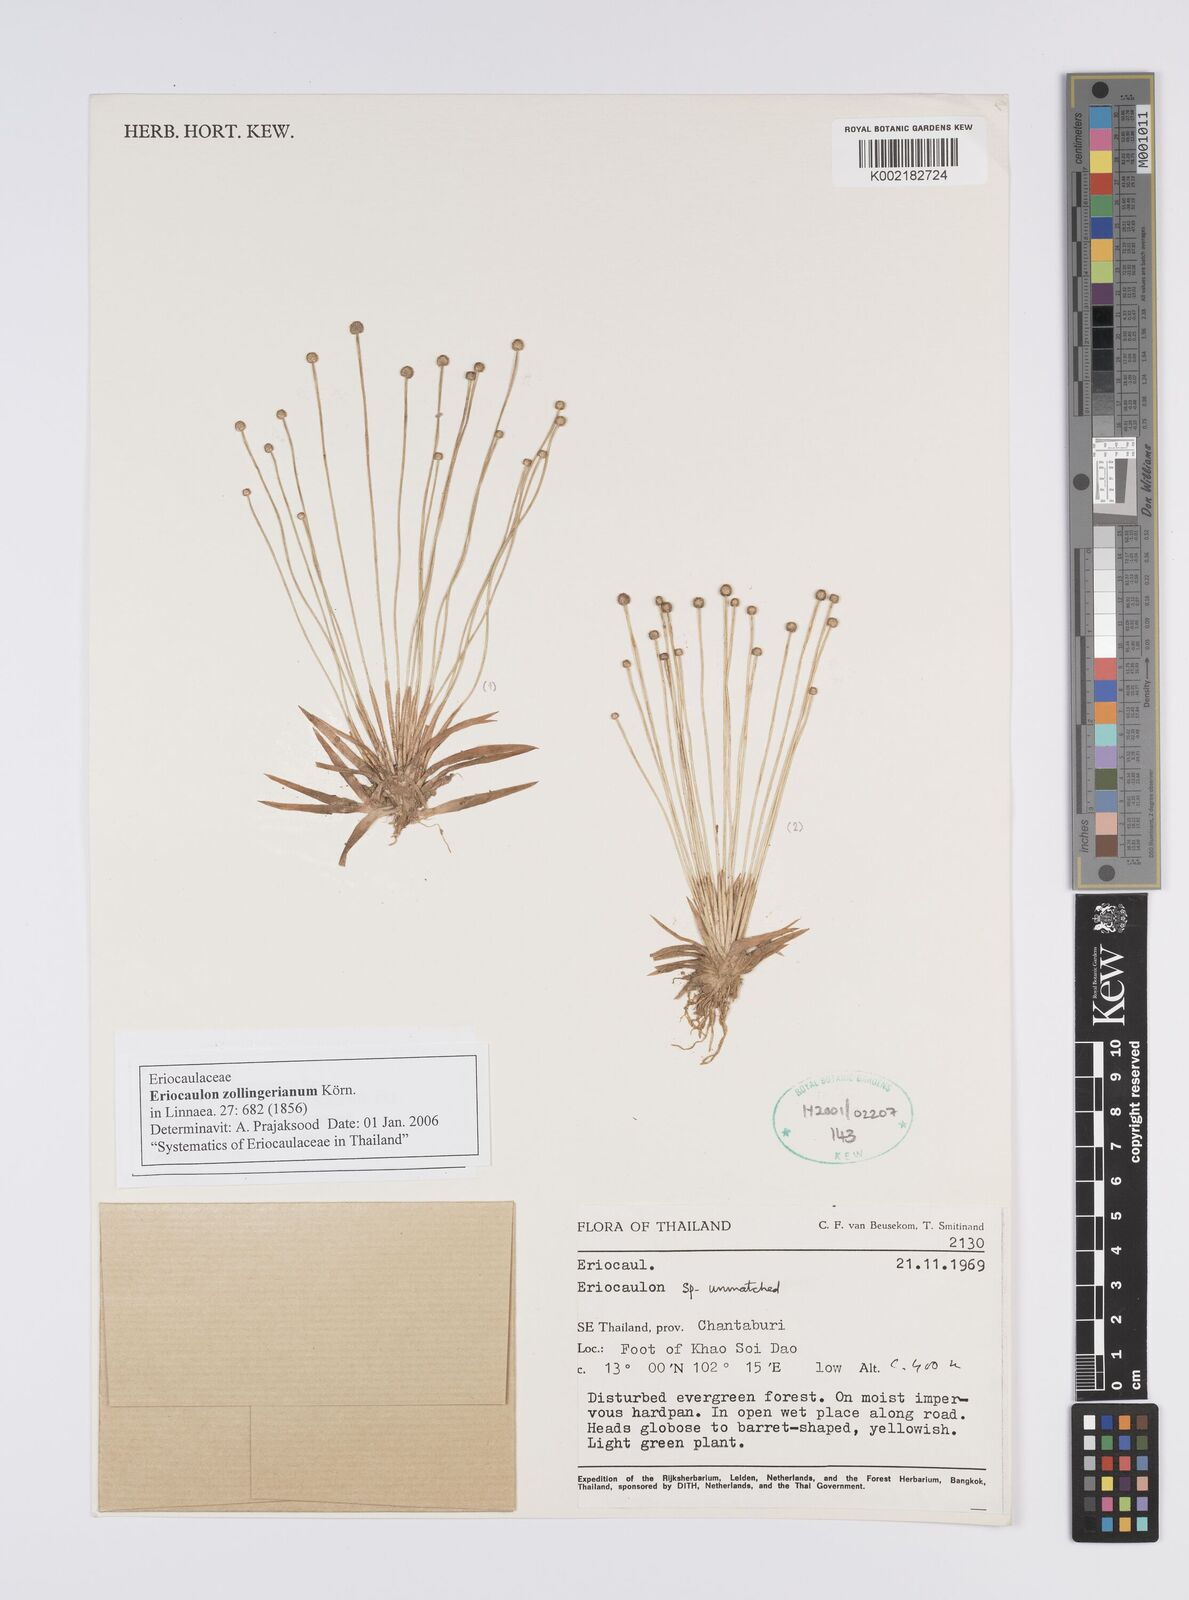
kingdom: Plantae
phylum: Tracheophyta
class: Liliopsida
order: Poales
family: Eriocaulaceae
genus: Eriocaulon
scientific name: Eriocaulon zollingerianum
